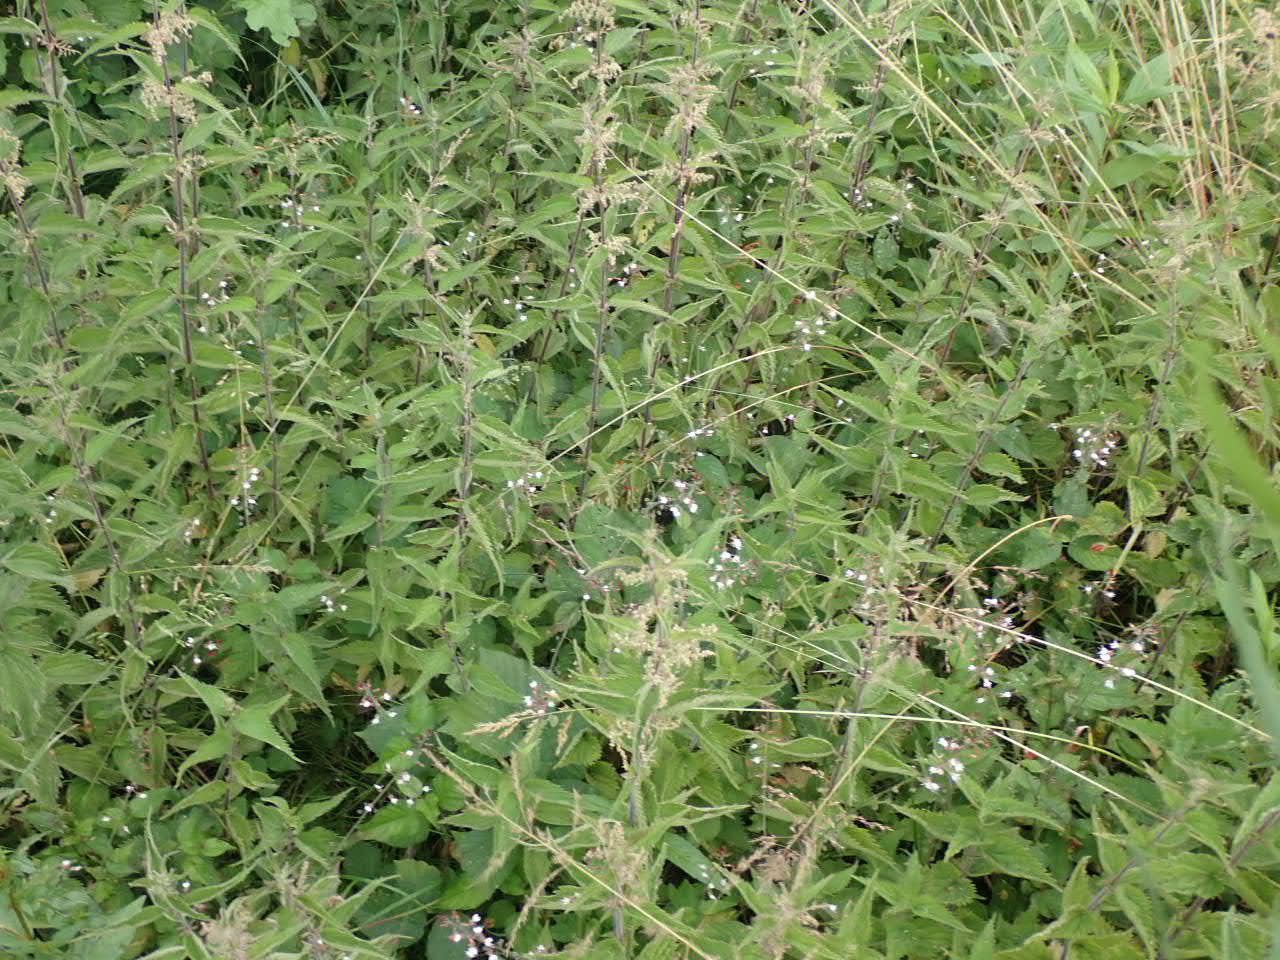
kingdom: Plantae
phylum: Tracheophyta
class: Magnoliopsida
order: Myrtales
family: Onagraceae
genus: Circaea
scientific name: Circaea lutetiana
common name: Dunet steffensurt
